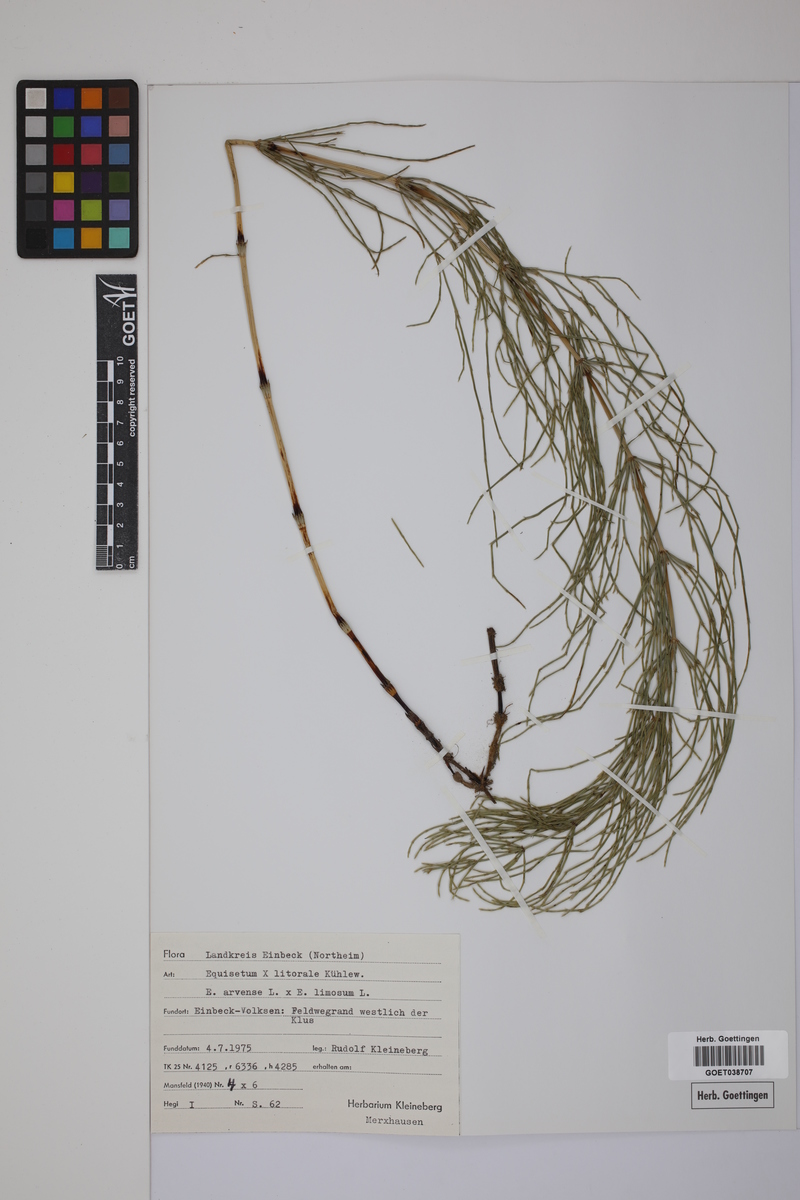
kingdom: Plantae
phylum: Tracheophyta
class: Polypodiopsida
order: Equisetales
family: Equisetaceae
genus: Equisetum
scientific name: Equisetum litorale
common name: Littoral horsetail
